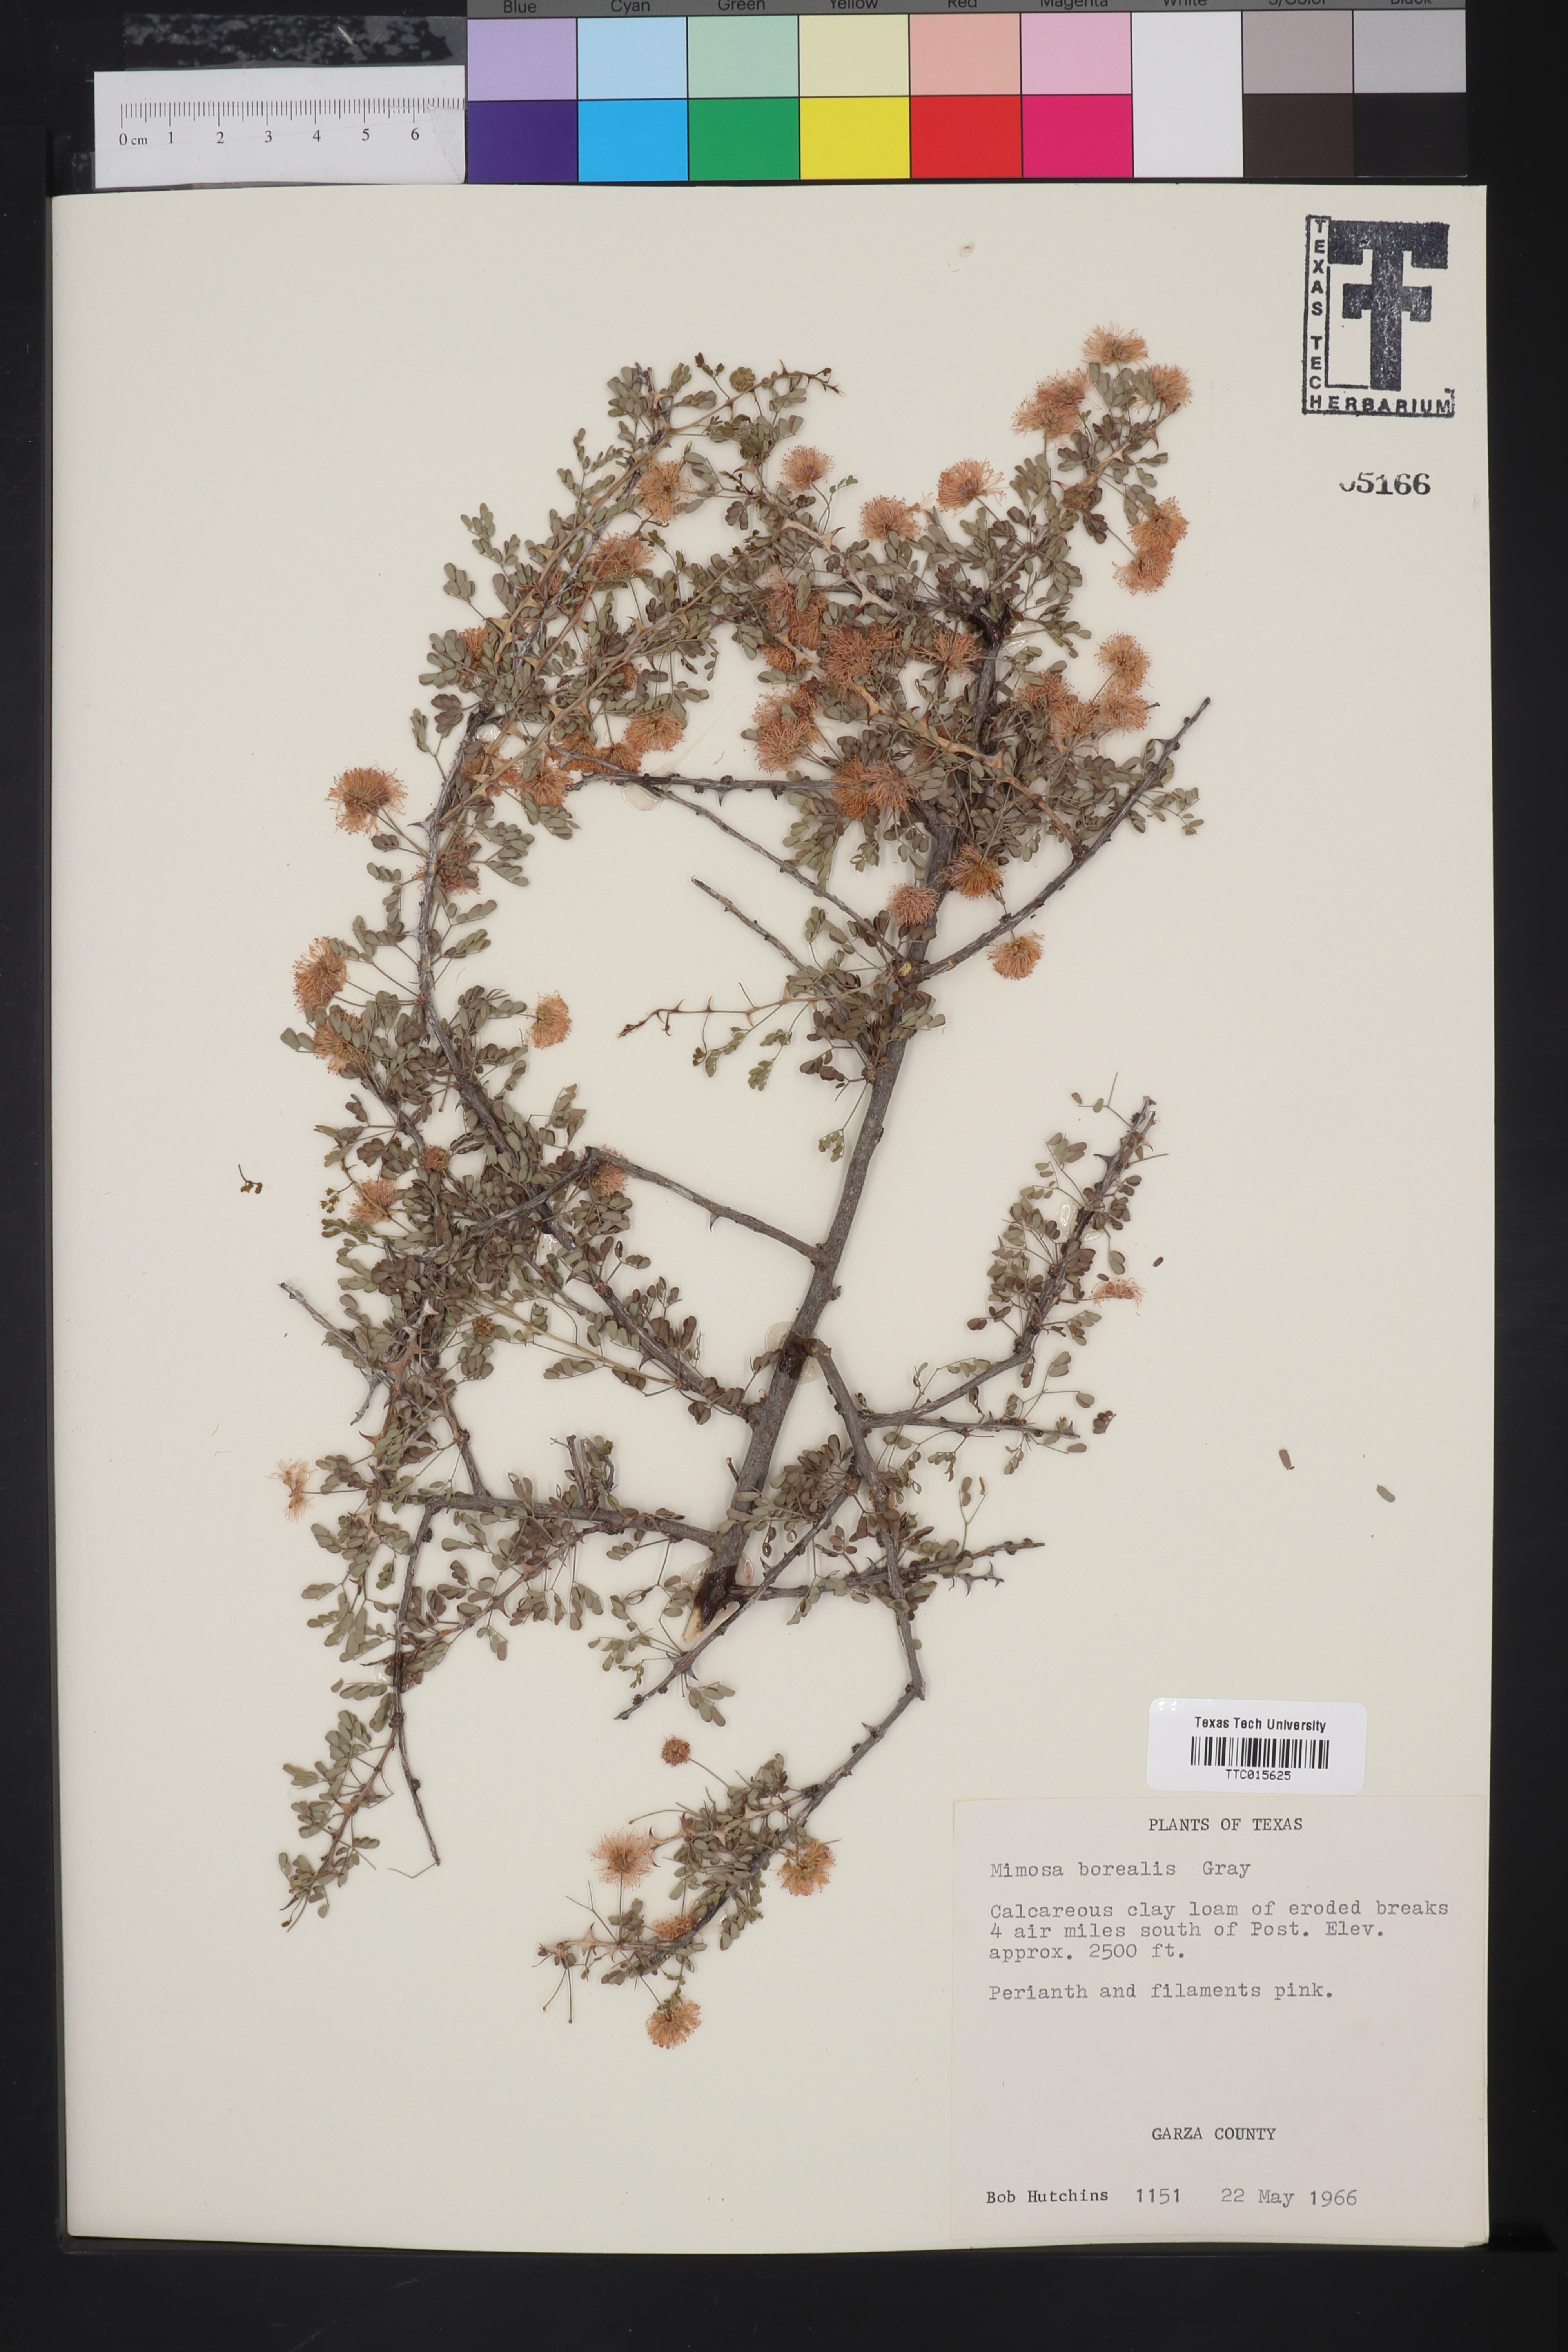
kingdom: Plantae
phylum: Tracheophyta
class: Magnoliopsida
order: Fabales
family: Fabaceae
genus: Mimosa
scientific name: Mimosa borealis
